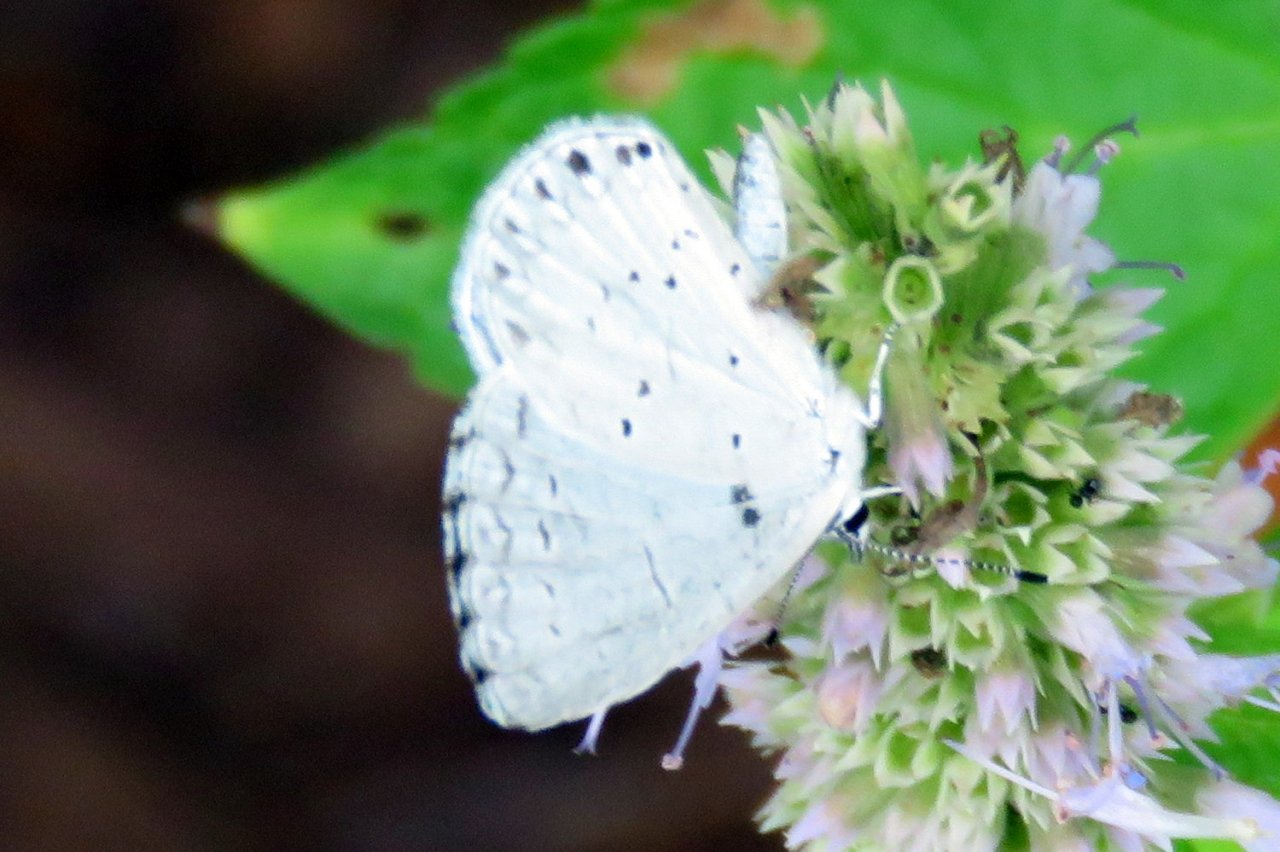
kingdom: Animalia
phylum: Arthropoda
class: Insecta
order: Lepidoptera
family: Lycaenidae
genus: Cyaniris
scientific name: Cyaniris neglecta
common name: Summer Azure
